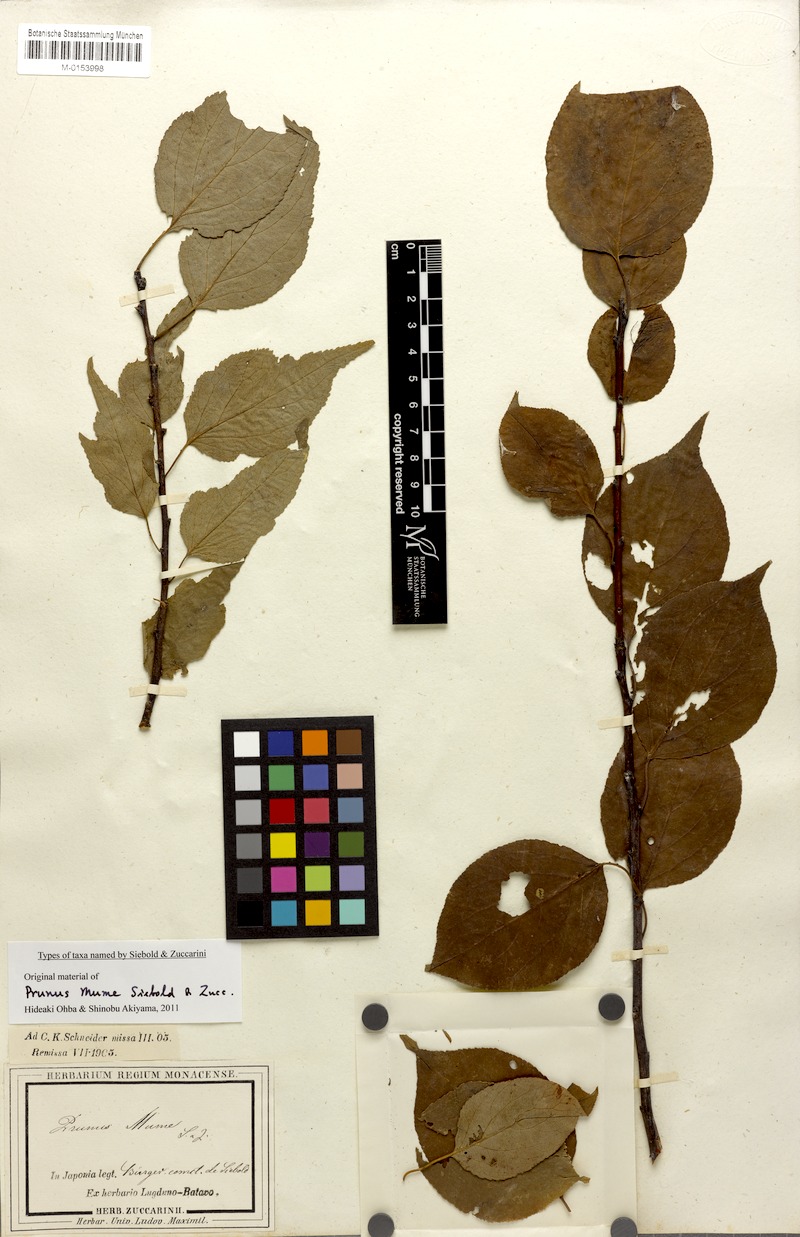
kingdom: Plantae
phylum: Tracheophyta
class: Magnoliopsida
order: Rosales
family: Rosaceae
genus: Prunus
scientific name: Prunus mume
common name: Japanese apricot
